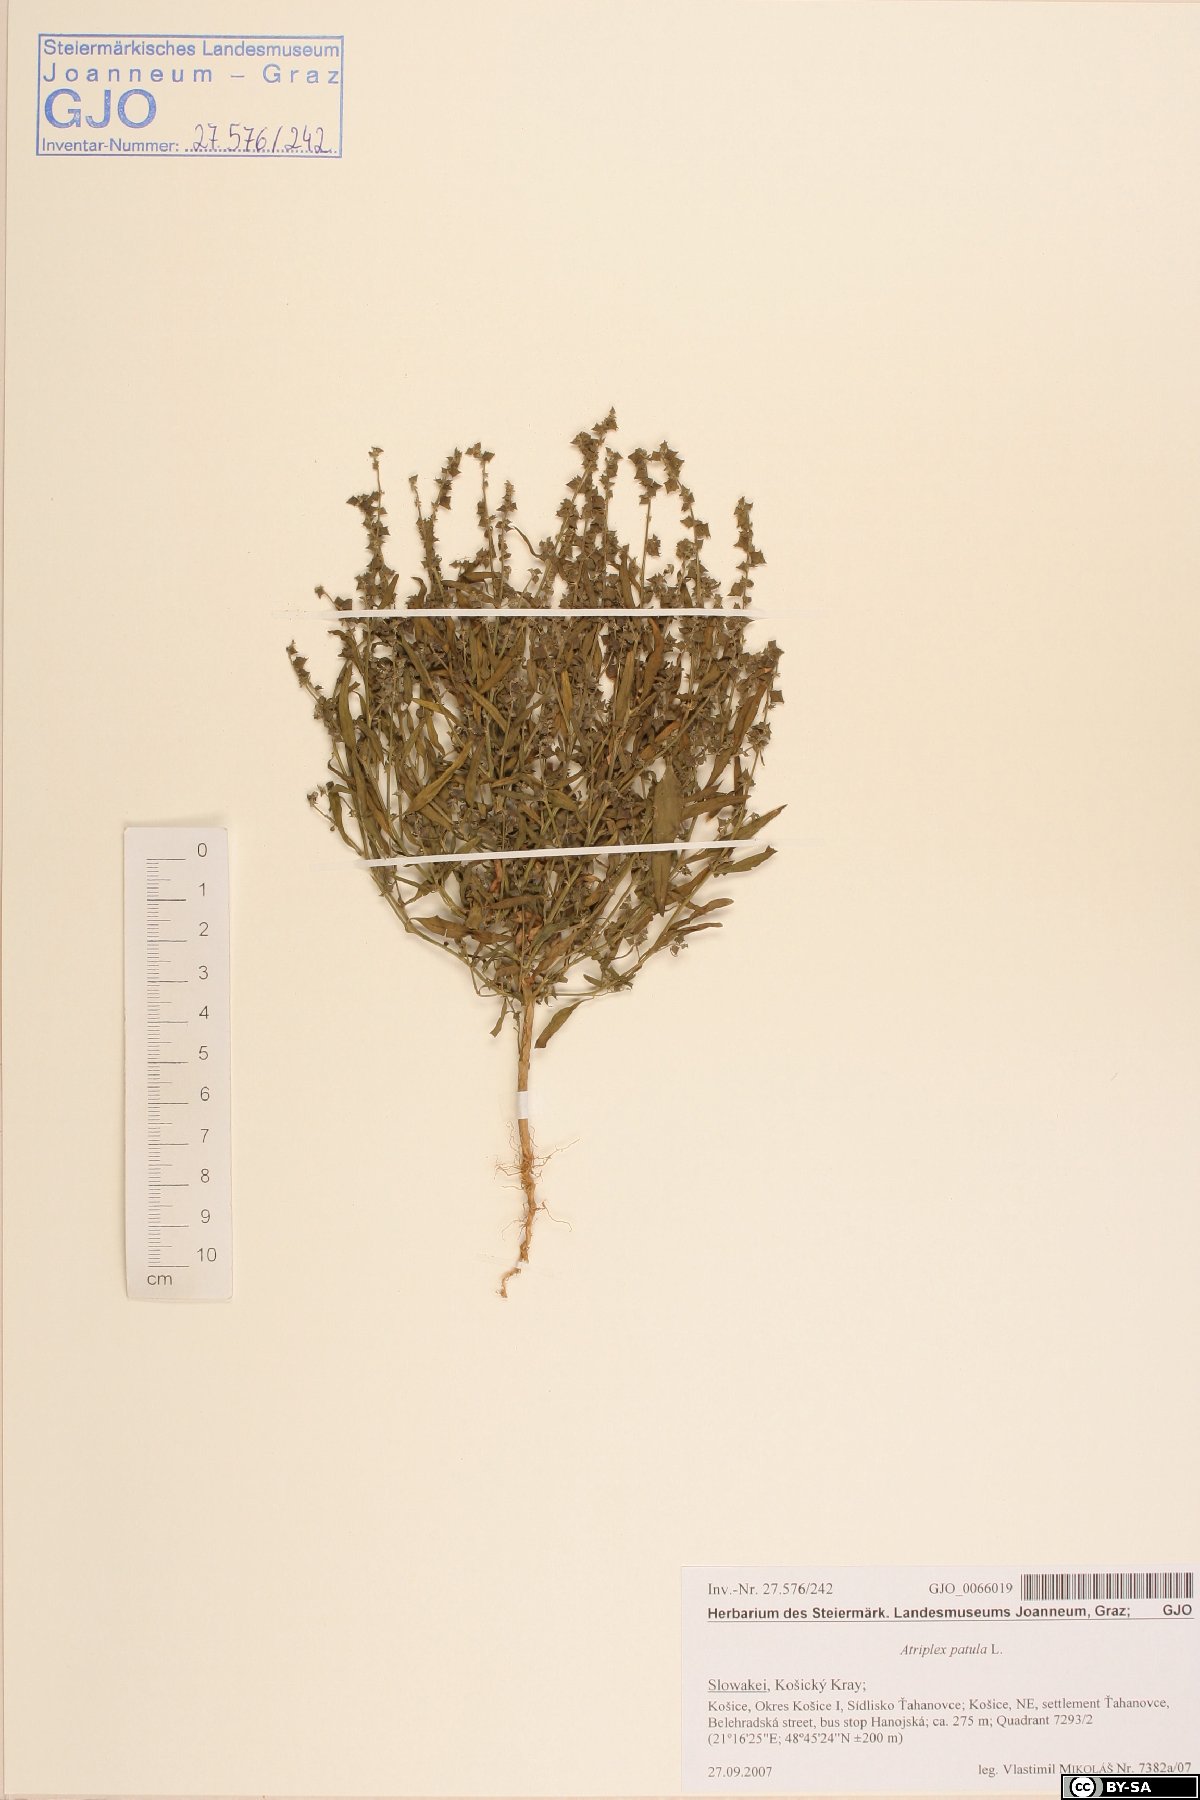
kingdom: Plantae
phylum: Tracheophyta
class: Magnoliopsida
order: Caryophyllales
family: Amaranthaceae
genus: Atriplex
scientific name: Atriplex patula
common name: Common orache
